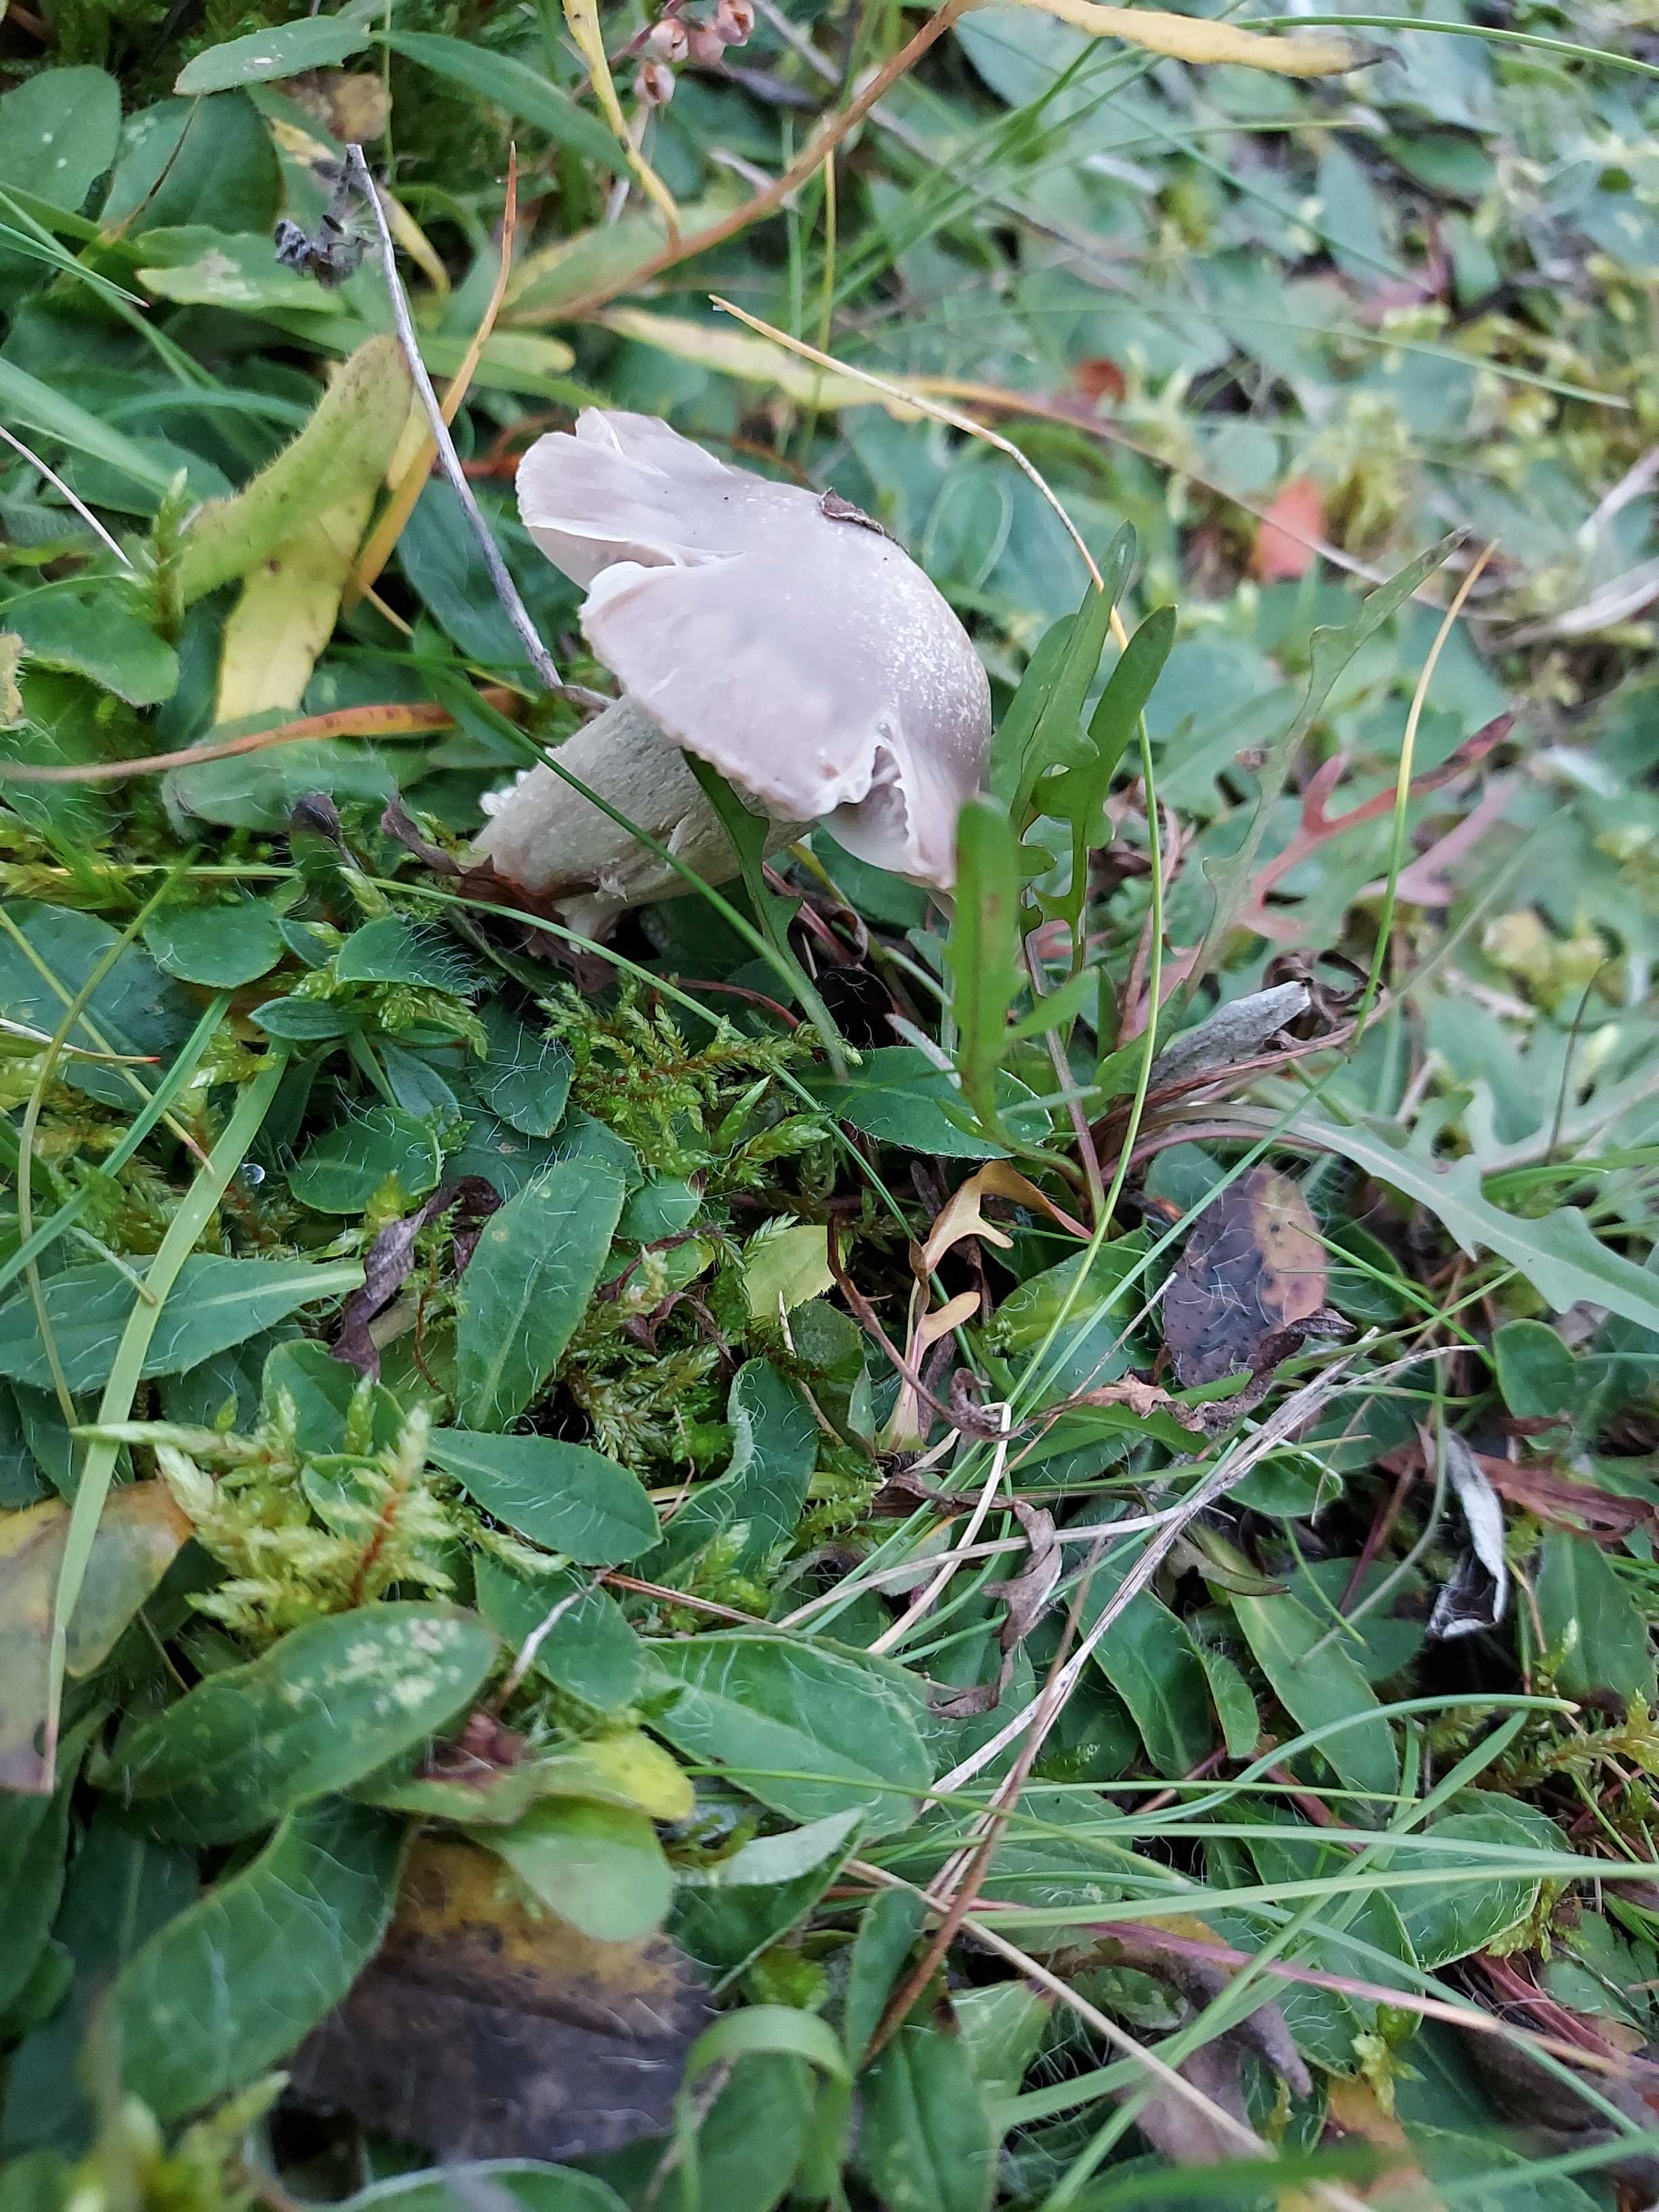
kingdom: Fungi
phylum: Basidiomycota
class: Agaricomycetes
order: Agaricales
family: Hygrophoraceae
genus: Cuphophyllus
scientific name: Cuphophyllus flavipes
